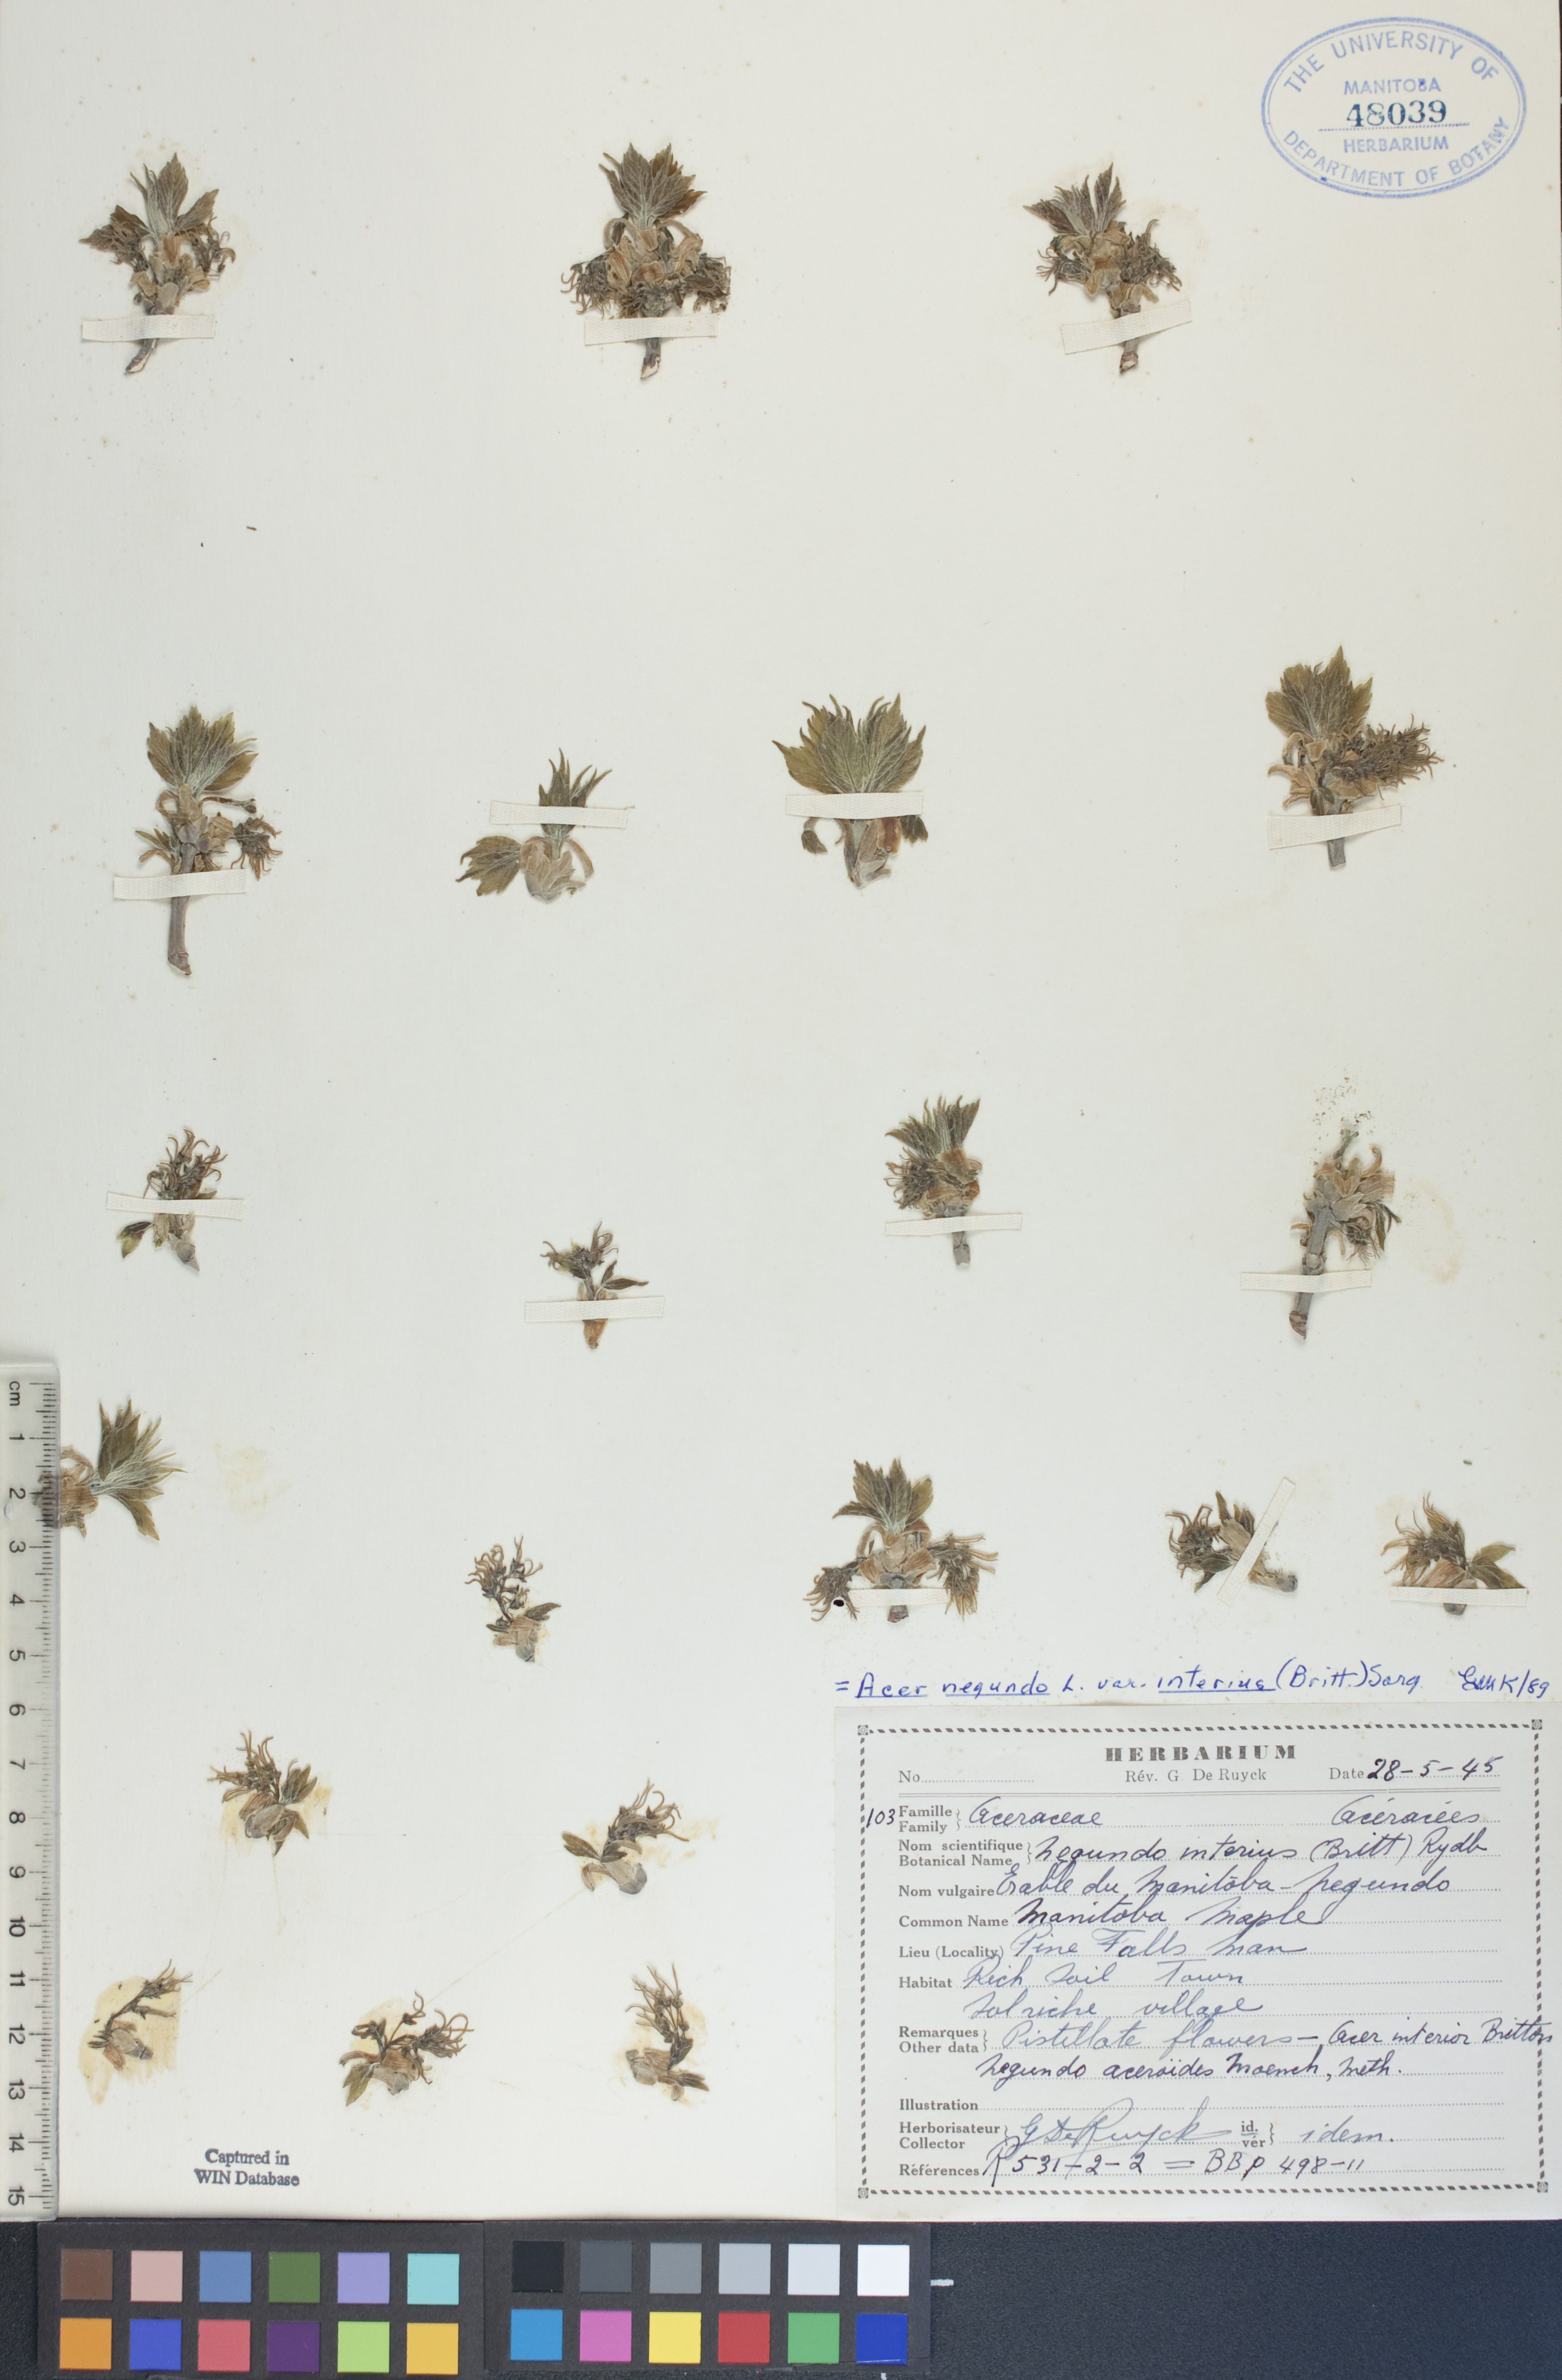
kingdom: Plantae
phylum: Tracheophyta
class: Magnoliopsida
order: Sapindales
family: Sapindaceae
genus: Acer
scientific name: Acer negundo
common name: Ashleaf maple
